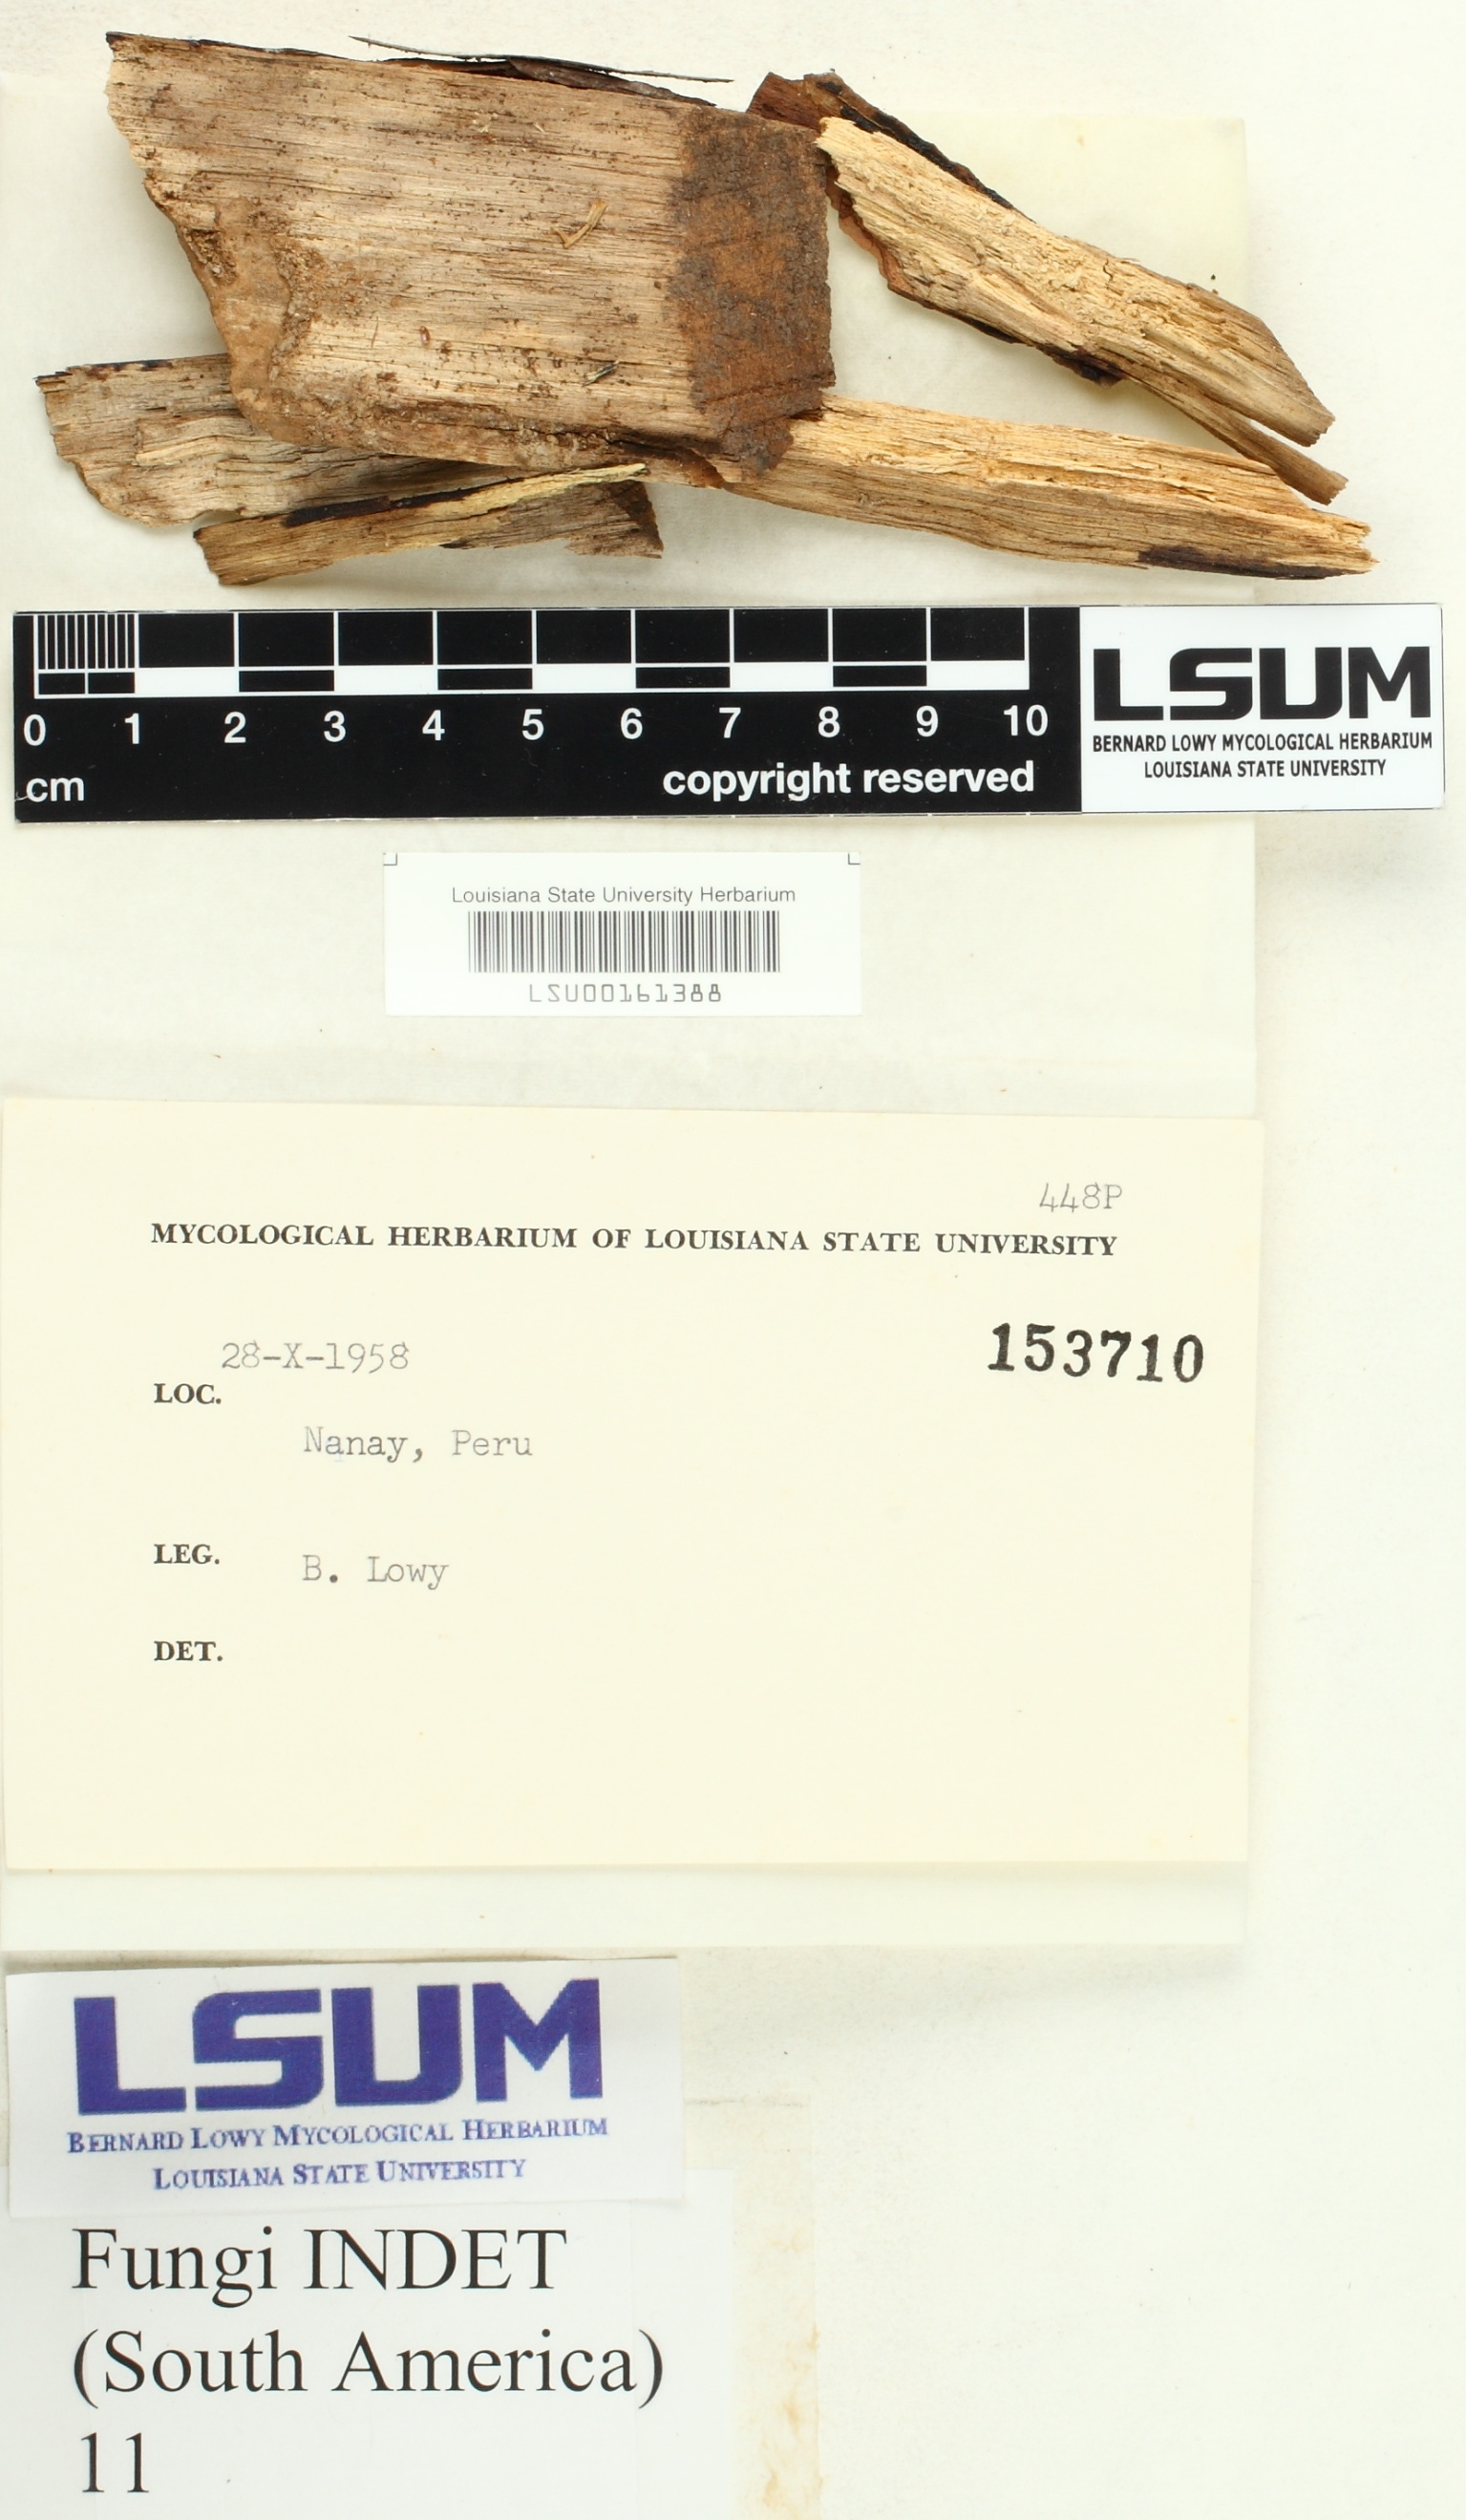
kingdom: Fungi
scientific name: Fungi
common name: Fungi
